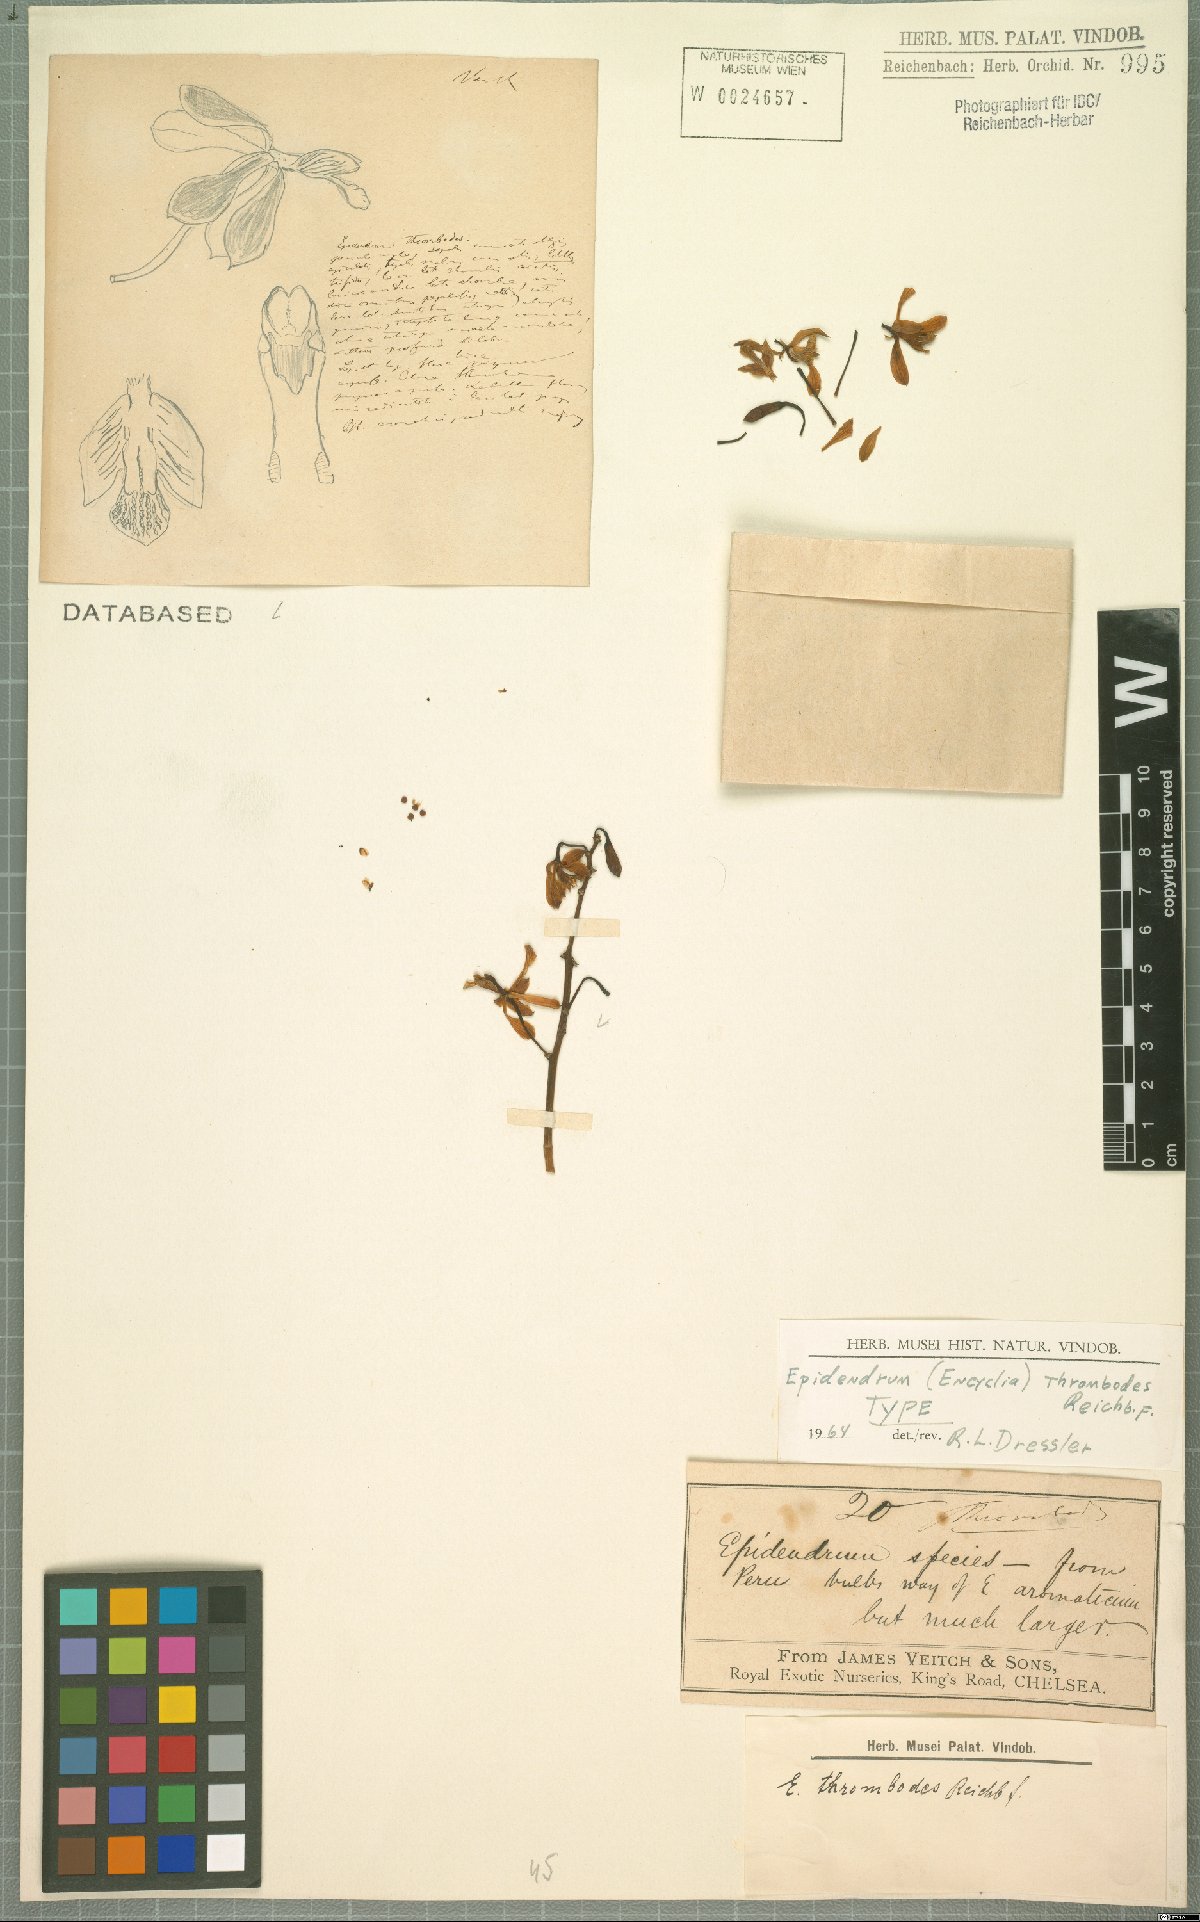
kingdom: Plantae
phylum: Tracheophyta
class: Liliopsida
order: Asparagales
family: Orchidaceae
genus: Encyclia
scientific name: Encyclia thrombodes
